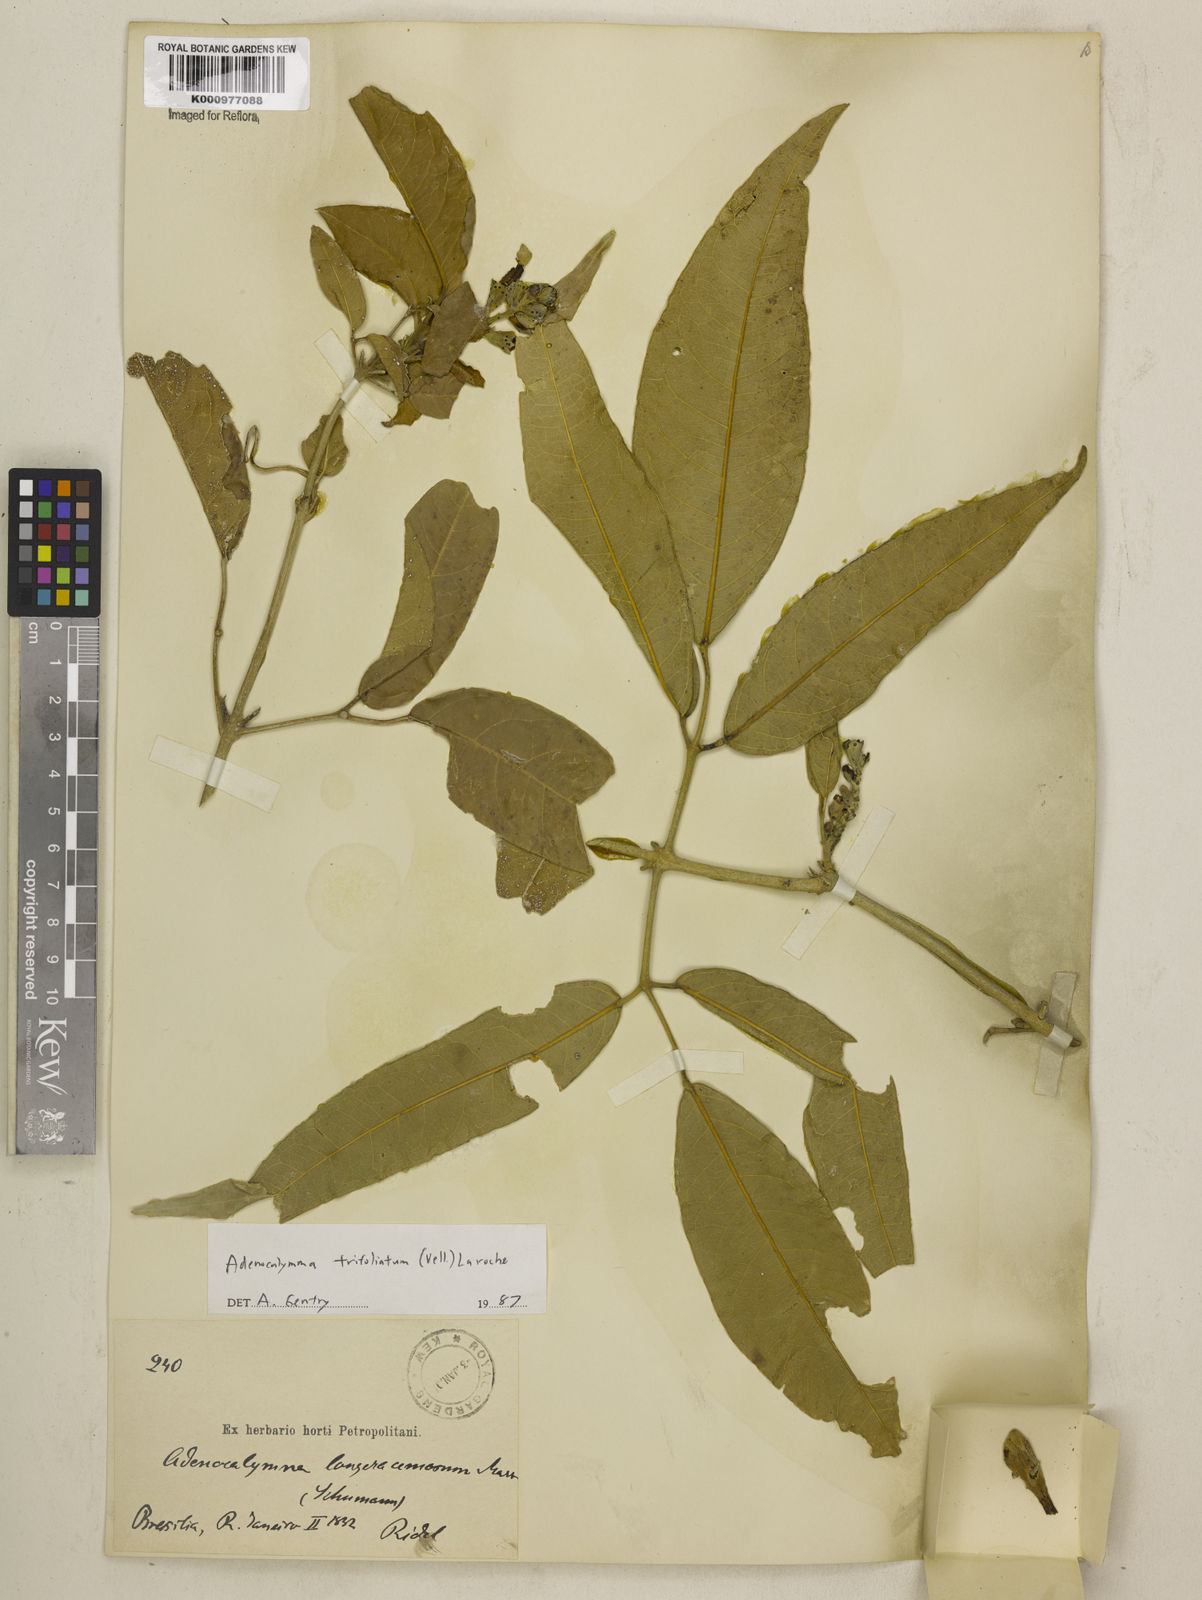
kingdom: Plantae
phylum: Tracheophyta
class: Magnoliopsida
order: Lamiales
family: Bignoniaceae
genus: Adenocalymma
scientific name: Adenocalymma trifoliatum
